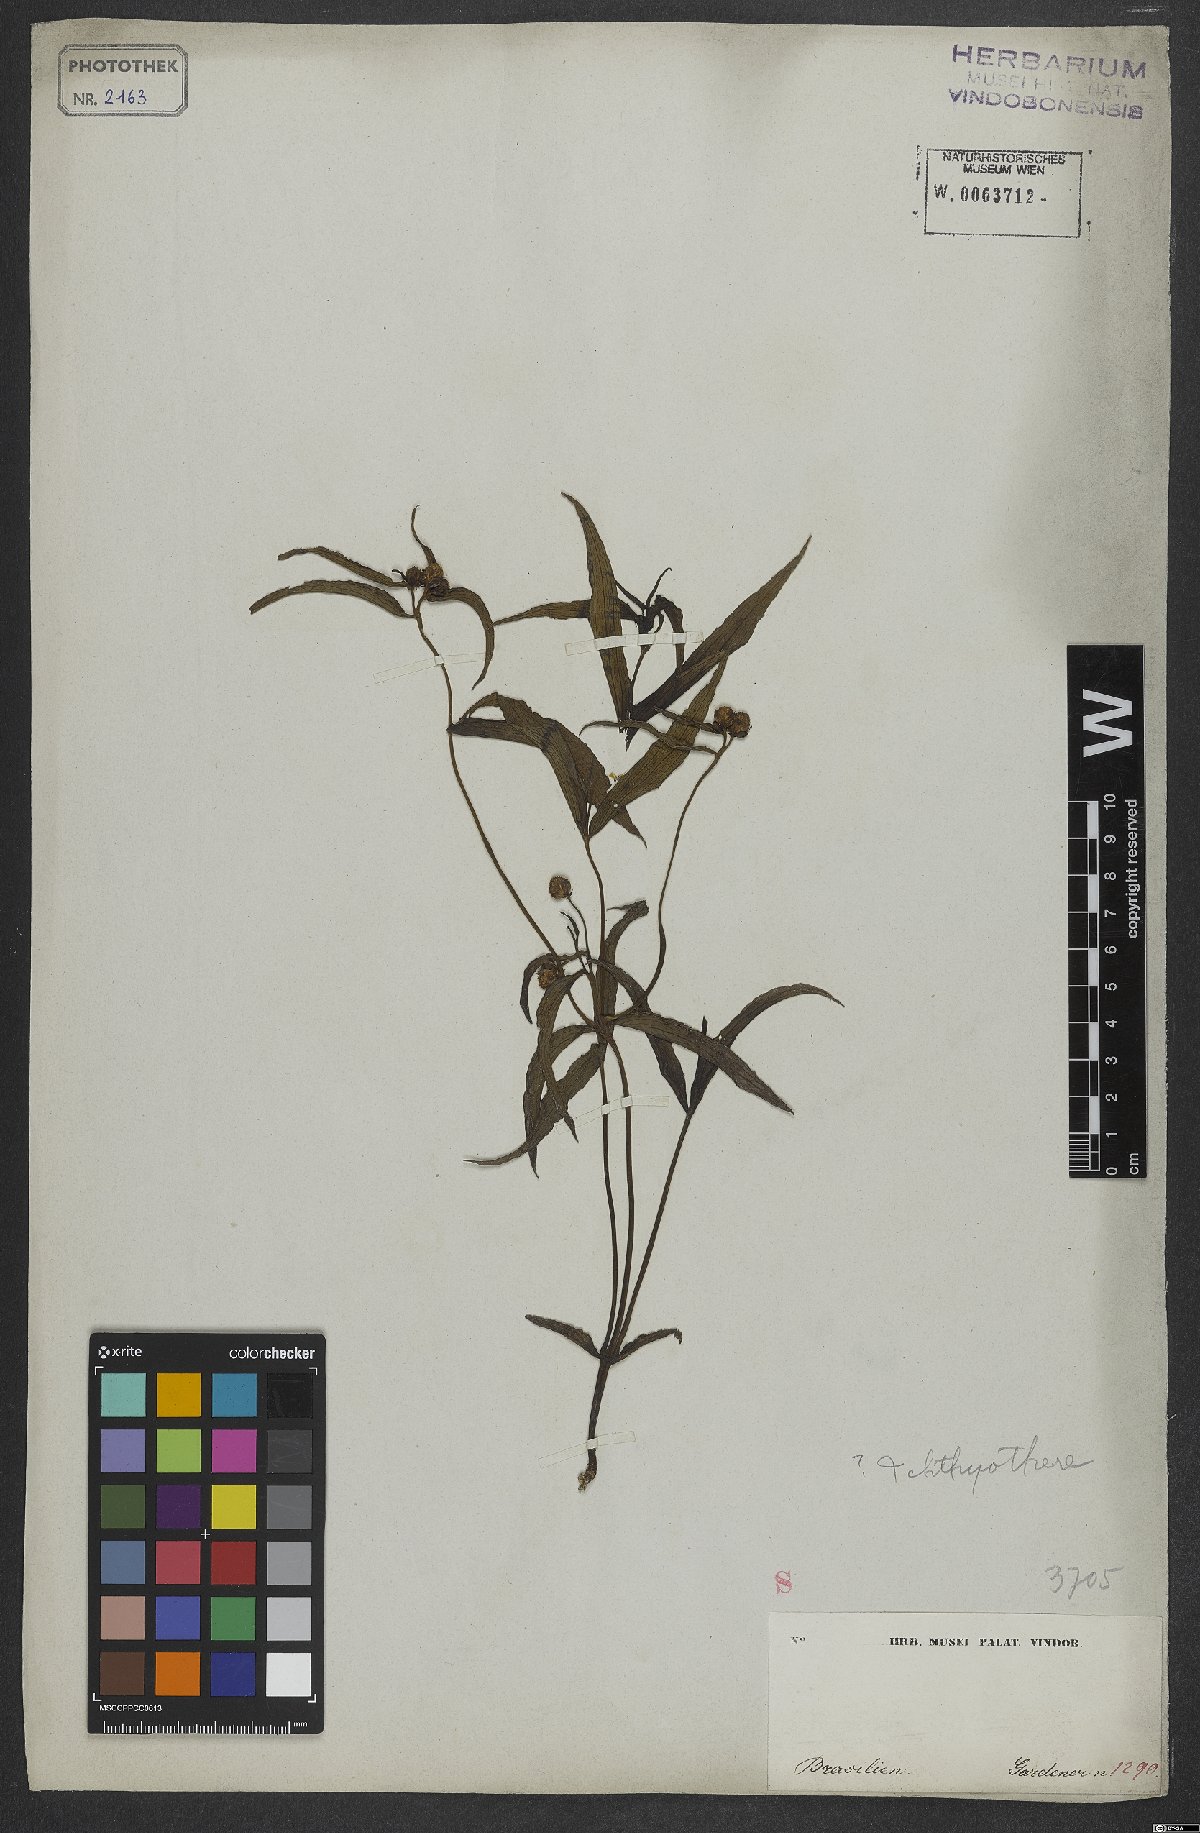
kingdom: Plantae
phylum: Tracheophyta
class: Magnoliopsida
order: Asterales
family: Asteraceae
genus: Ichthyothere
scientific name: Ichthyothere
